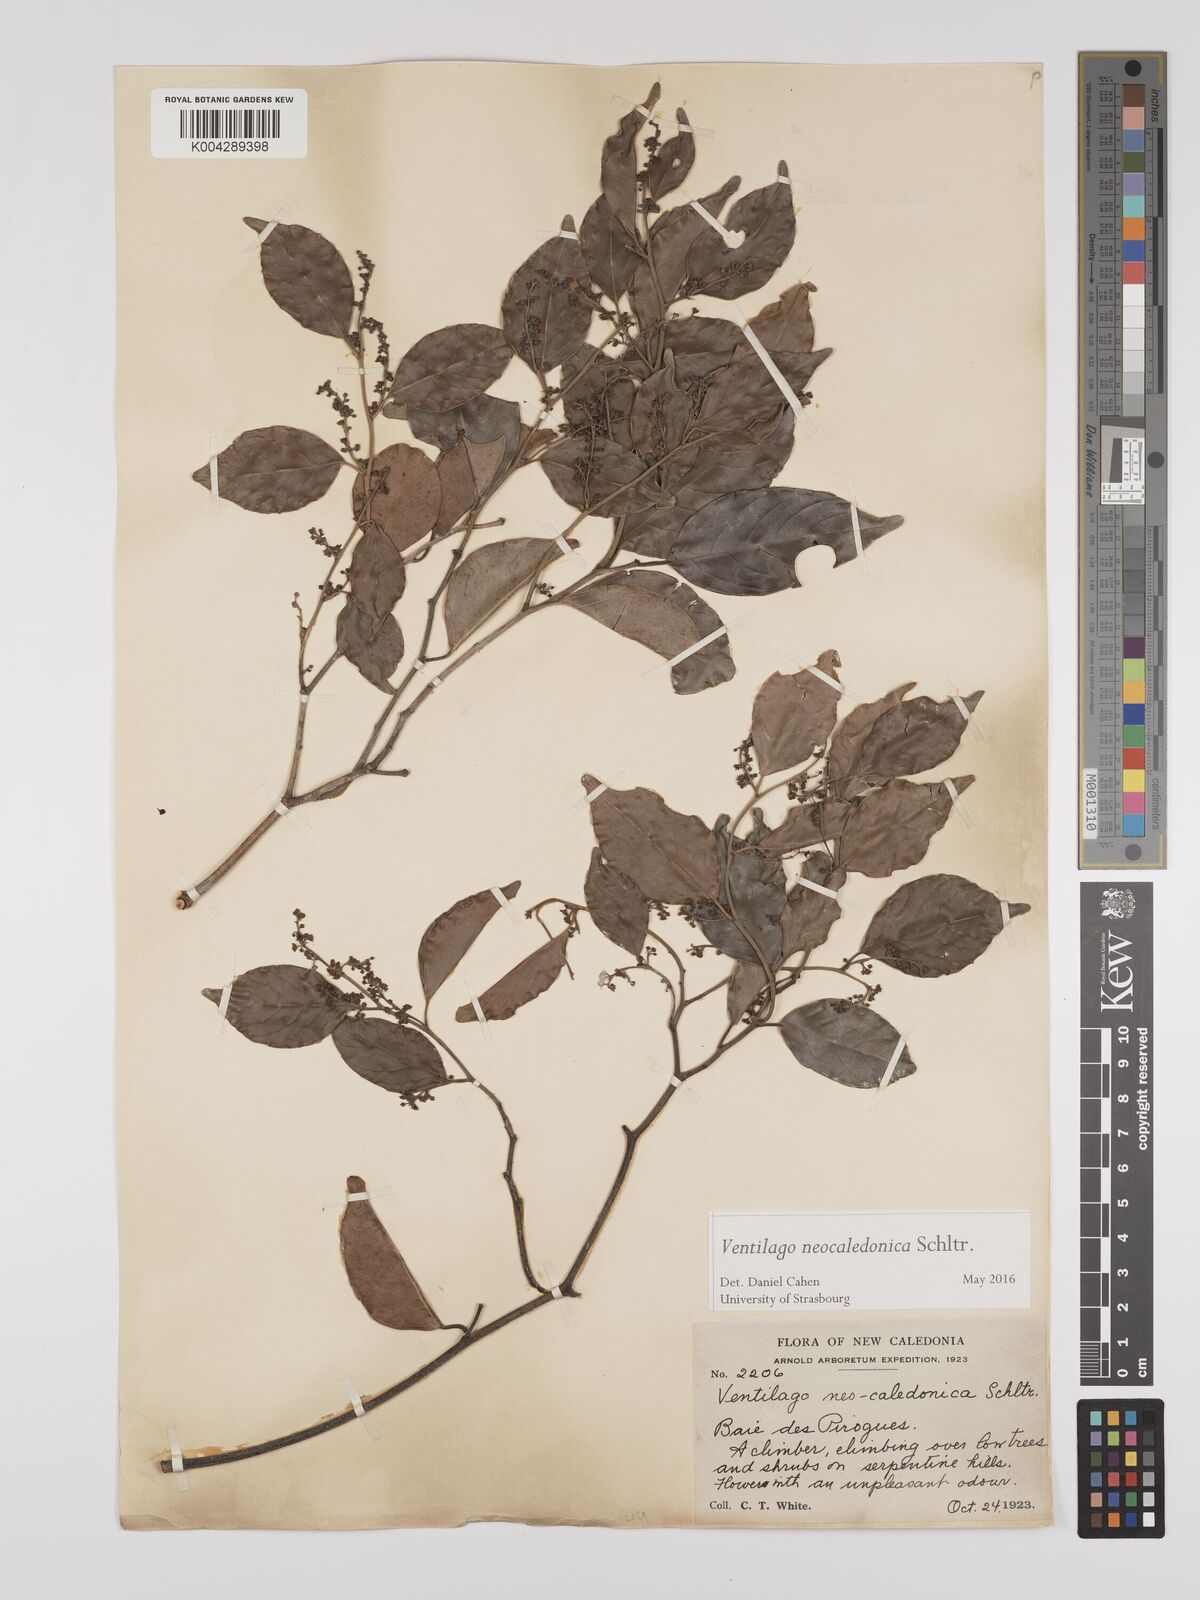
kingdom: Plantae
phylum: Tracheophyta
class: Magnoliopsida
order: Rosales
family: Rhamnaceae
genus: Ventilago
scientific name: Ventilago neocaledonica
